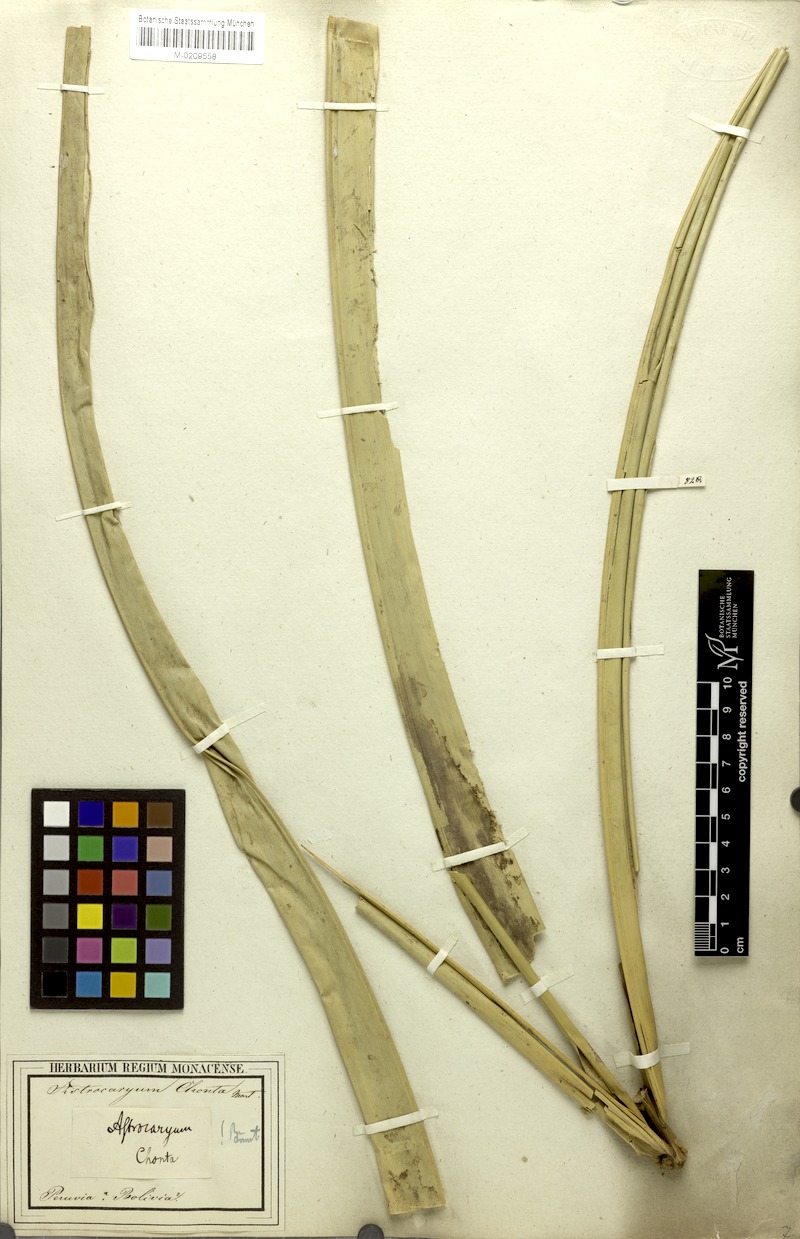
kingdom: Plantae
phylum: Tracheophyta
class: Liliopsida
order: Arecales
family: Arecaceae
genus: Astrocaryum
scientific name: Astrocaryum chonta
